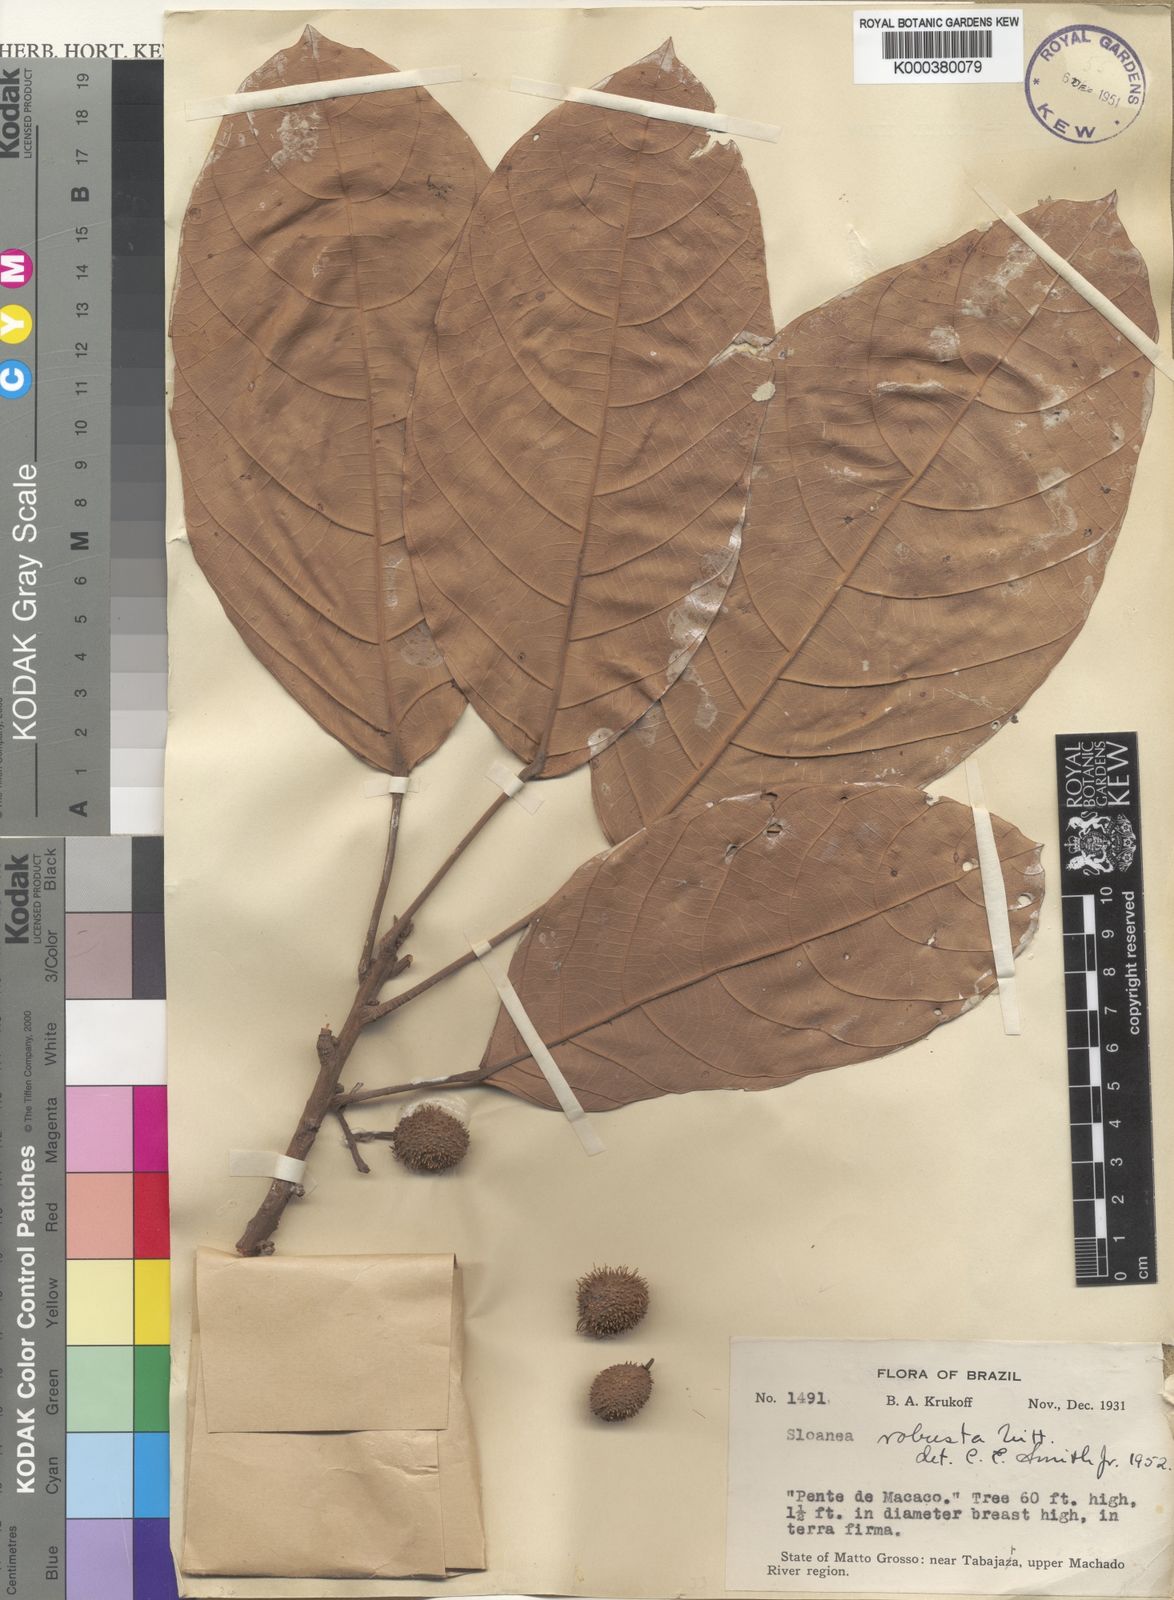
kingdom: Plantae
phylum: Tracheophyta
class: Magnoliopsida
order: Oxalidales
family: Elaeocarpaceae
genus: Sloanea
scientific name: Sloanea usurpatrix
